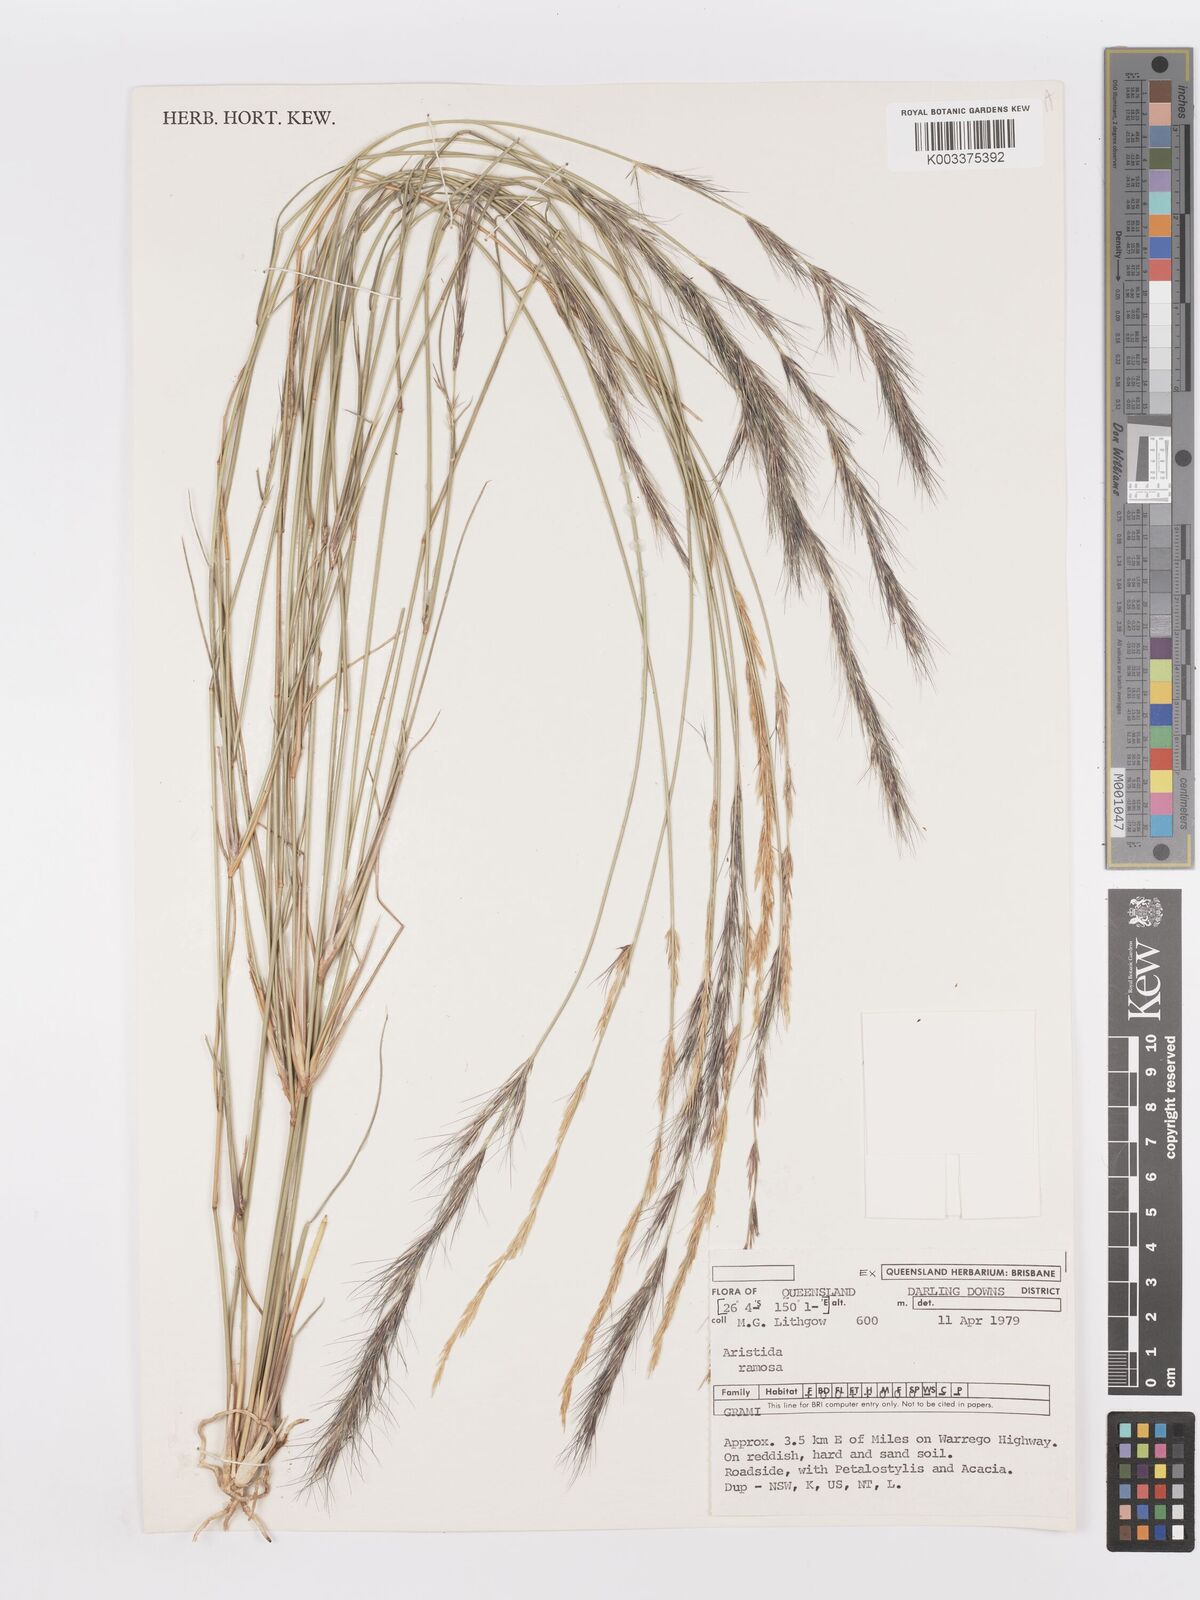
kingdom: Plantae
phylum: Tracheophyta
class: Liliopsida
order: Poales
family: Poaceae
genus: Aristida
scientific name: Aristida ramosa
